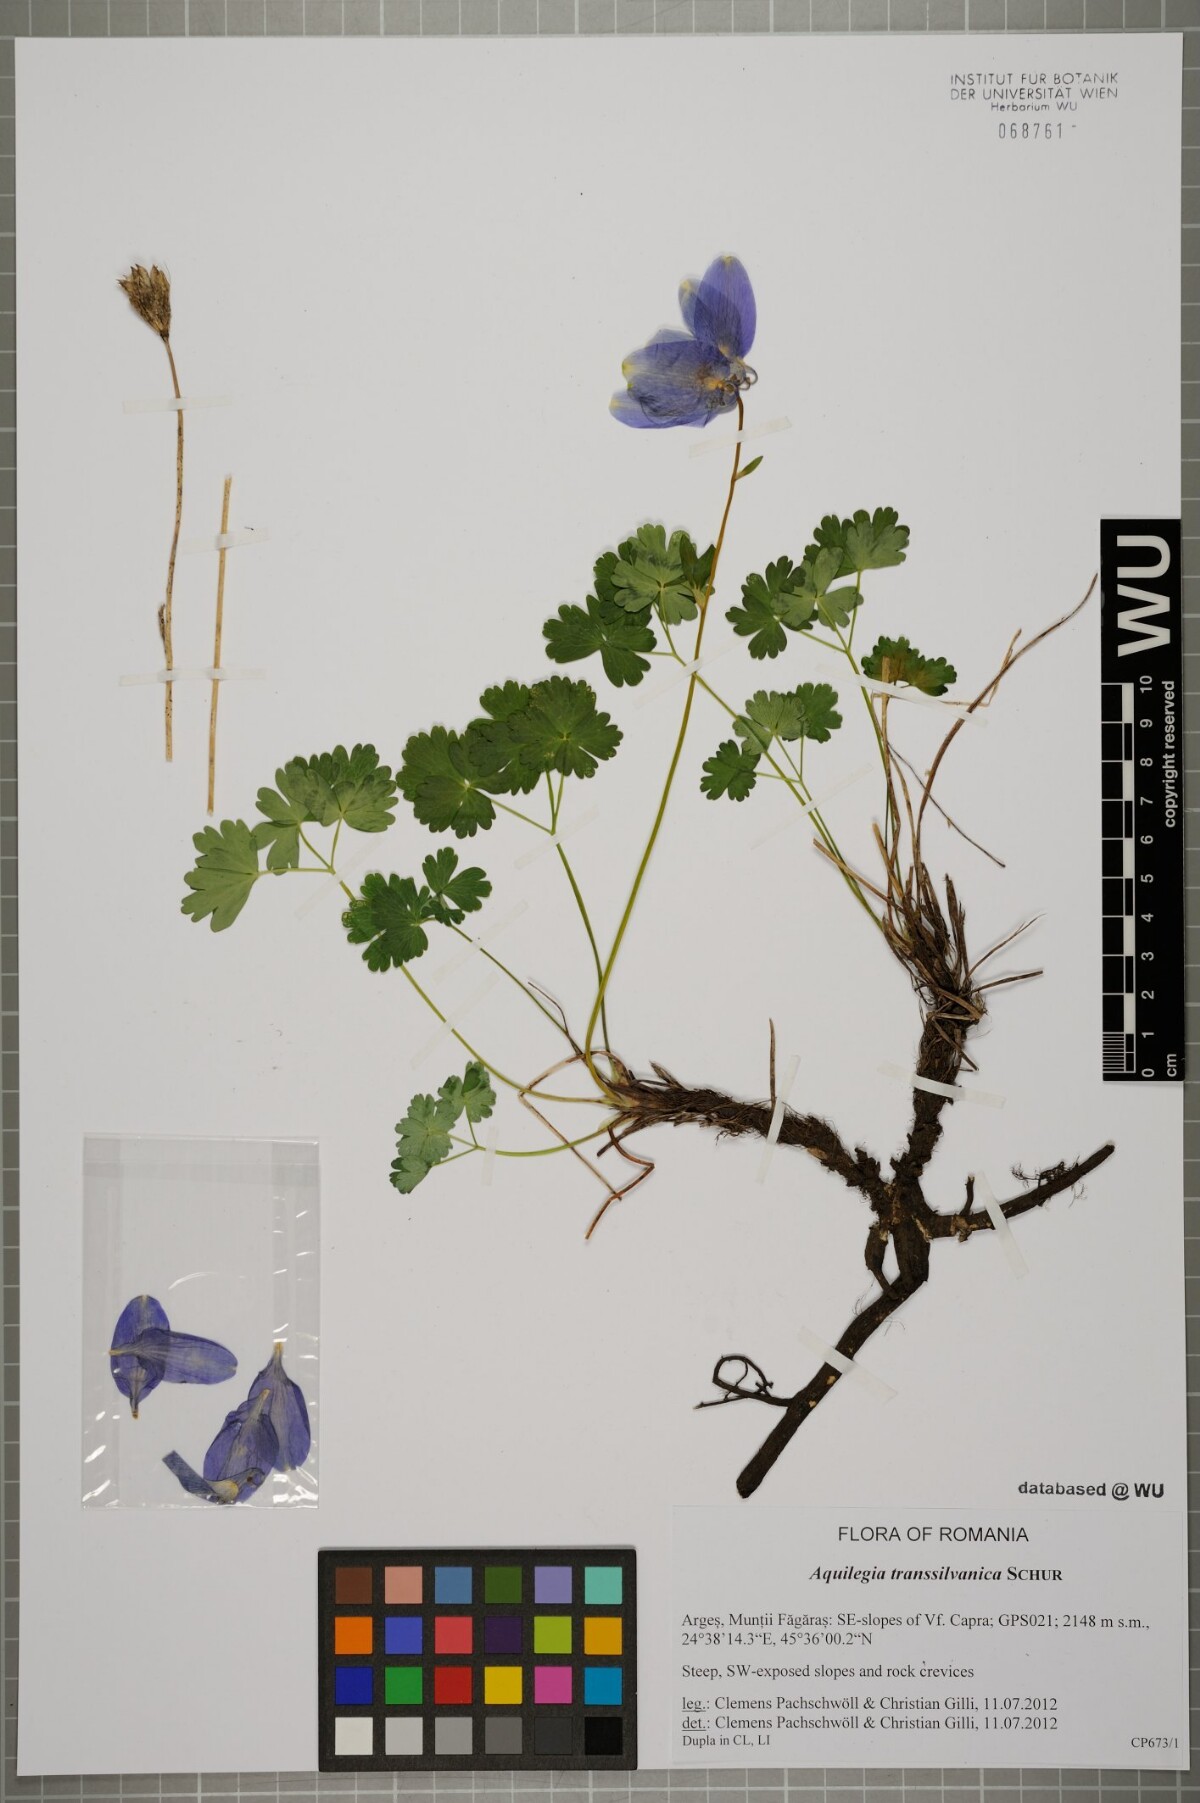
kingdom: Plantae
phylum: Tracheophyta
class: Magnoliopsida
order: Ranunculales
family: Ranunculaceae
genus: Aquilegia
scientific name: Aquilegia transsilvanica
